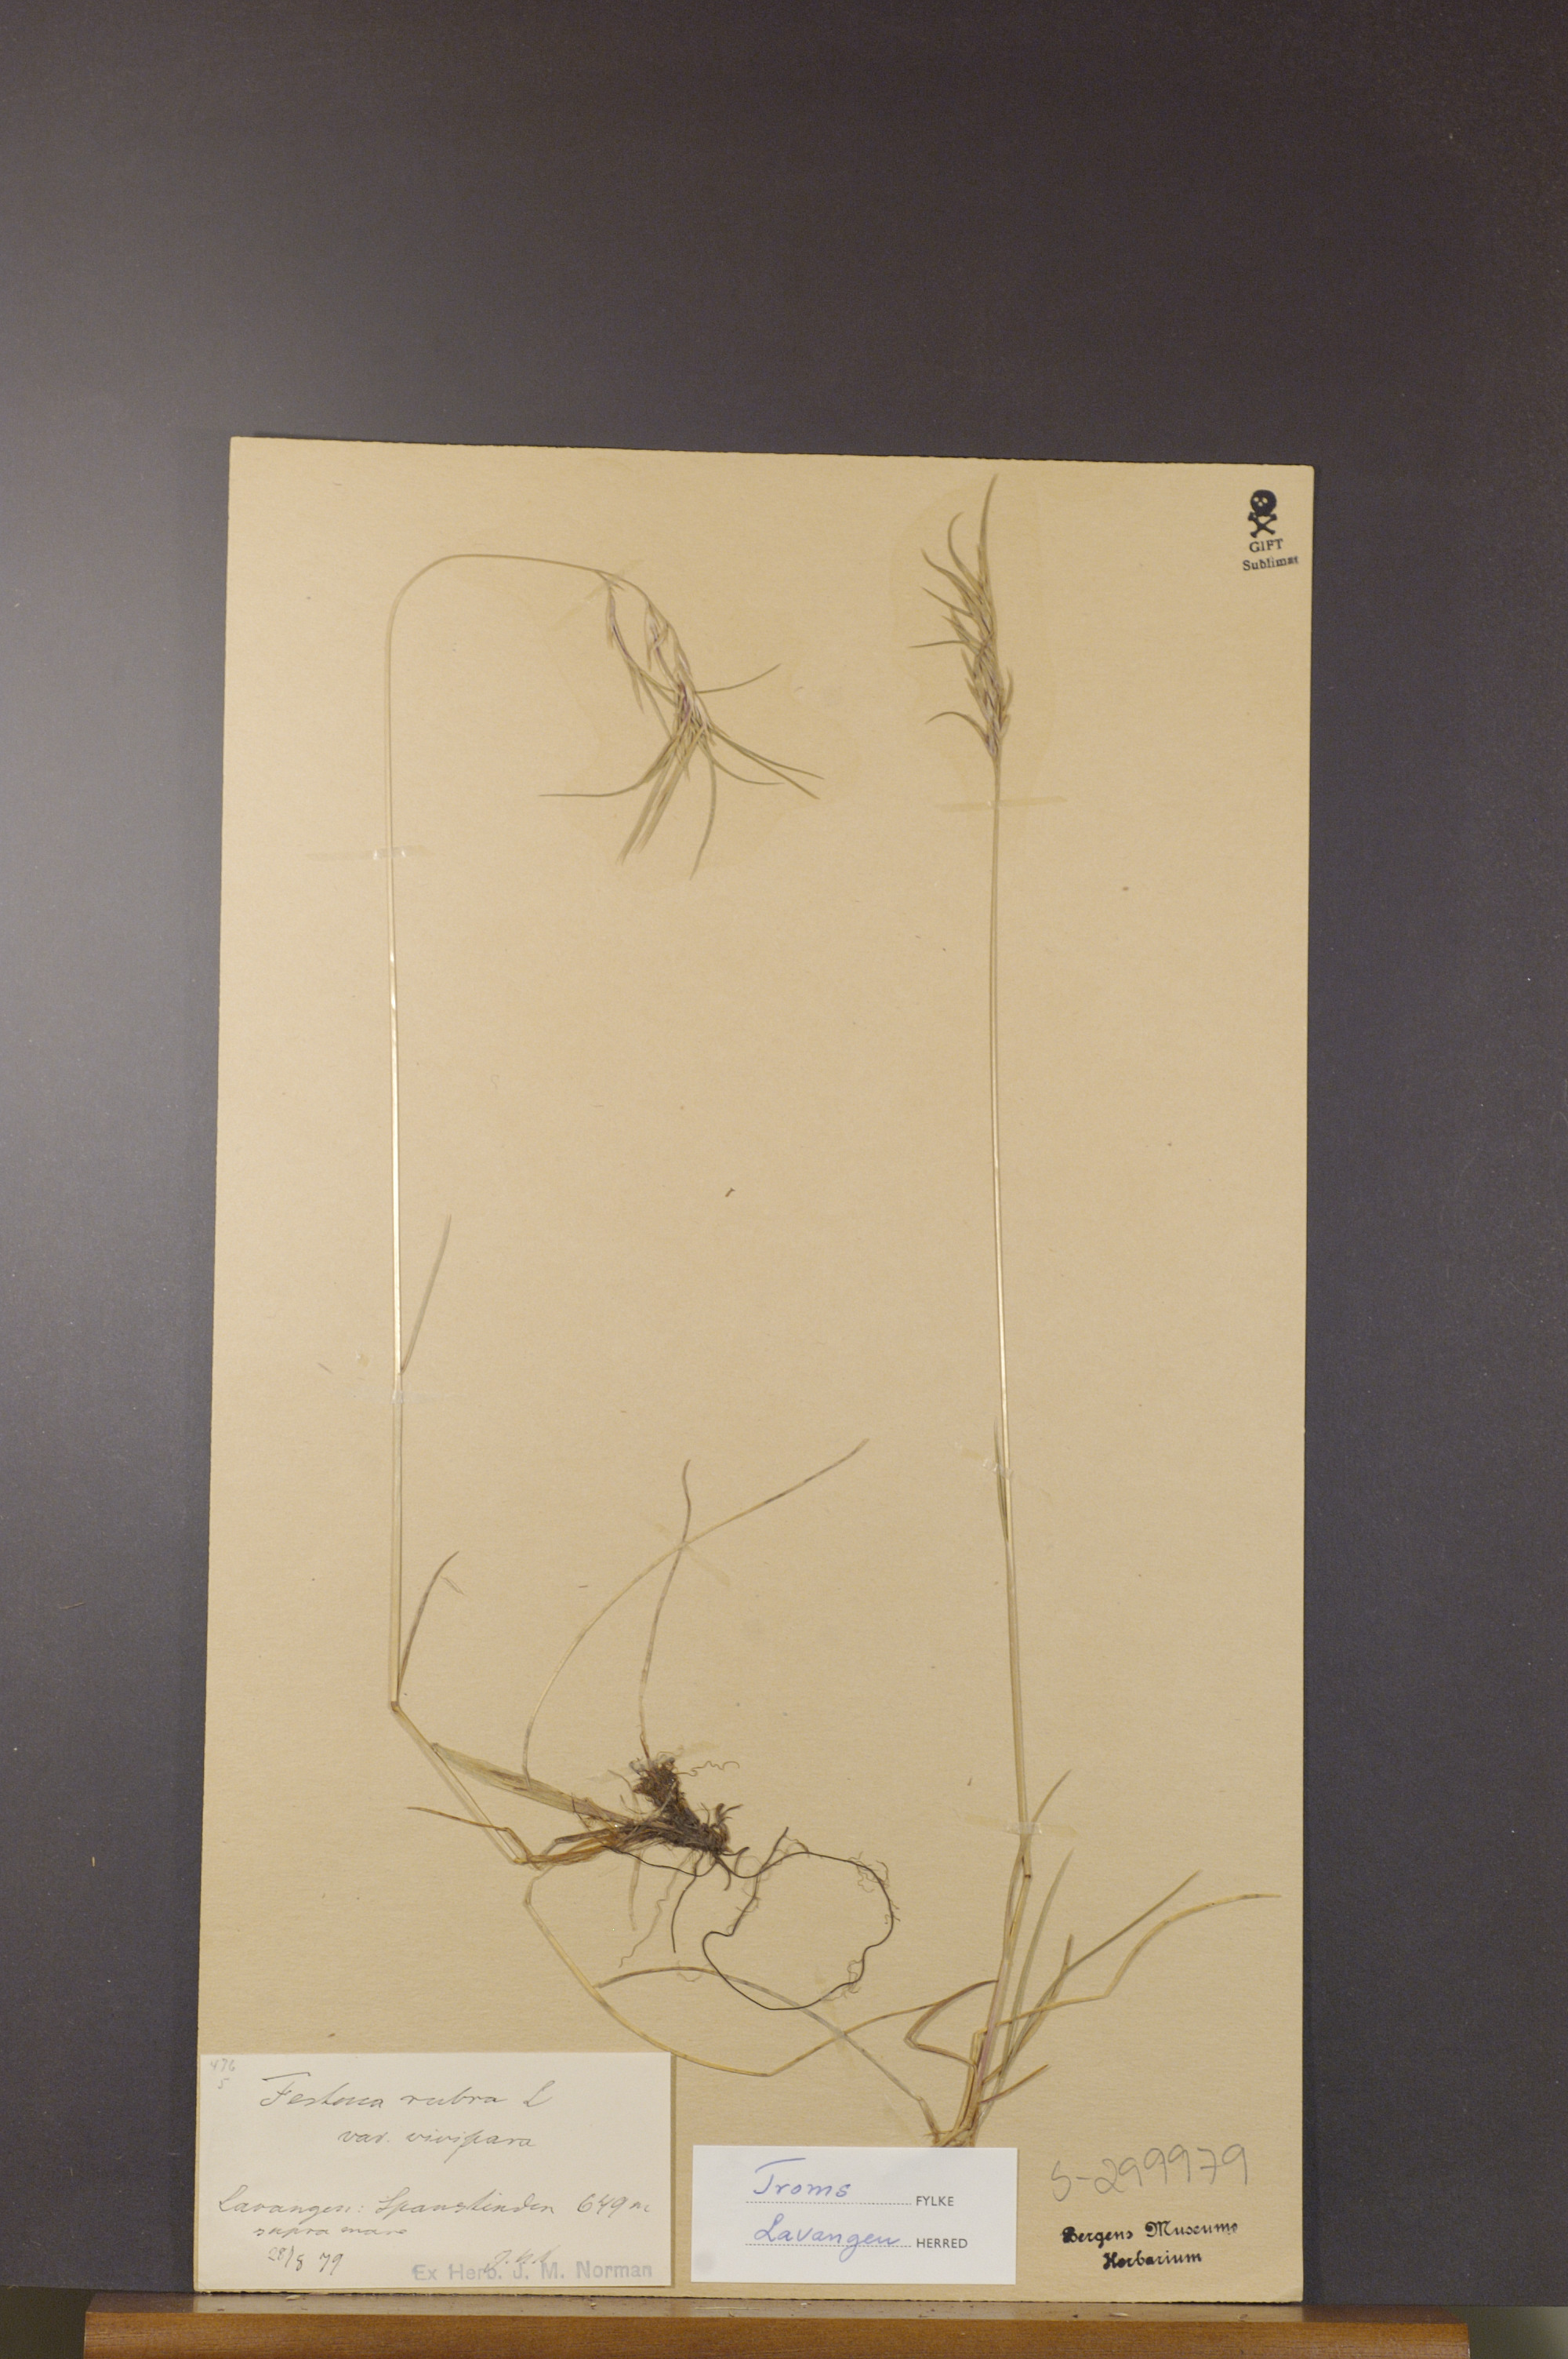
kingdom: Plantae
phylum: Tracheophyta
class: Liliopsida
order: Poales
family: Poaceae
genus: Festuca
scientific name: Festuca rubra
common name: Red fescue
